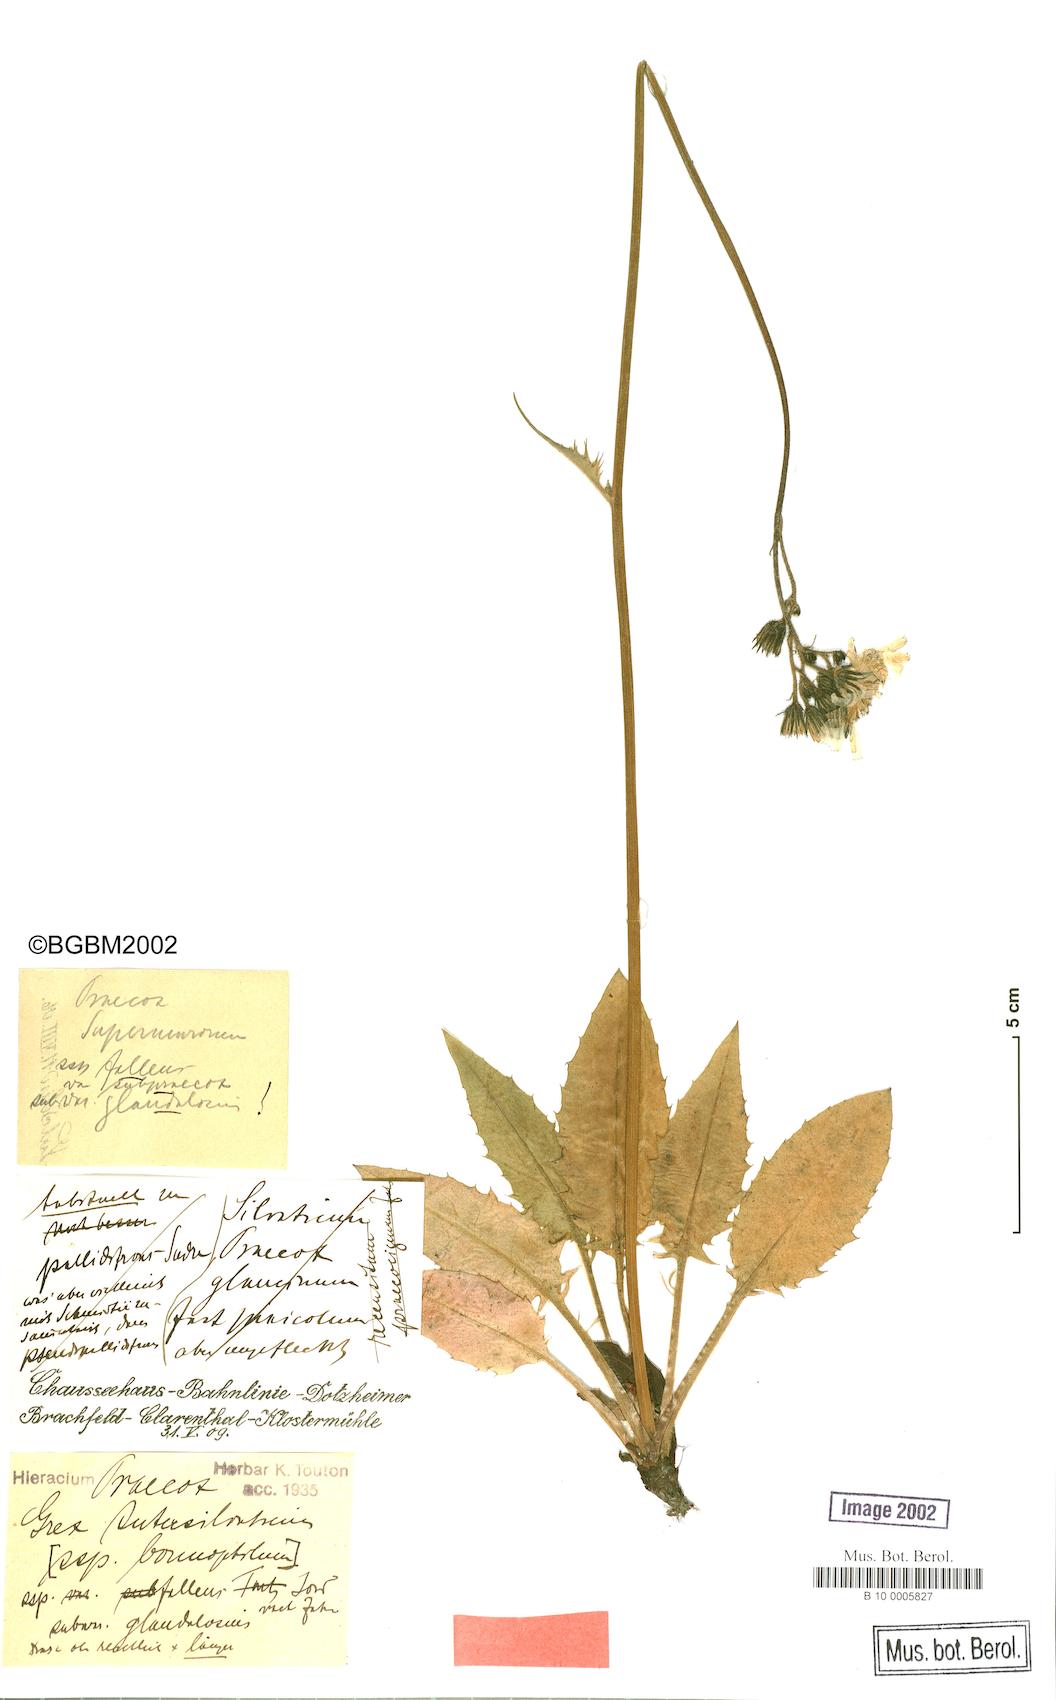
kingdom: Plantae
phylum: Tracheophyta
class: Magnoliopsida
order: Asterales
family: Asteraceae
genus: Hieracium
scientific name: Hieracium praecox
